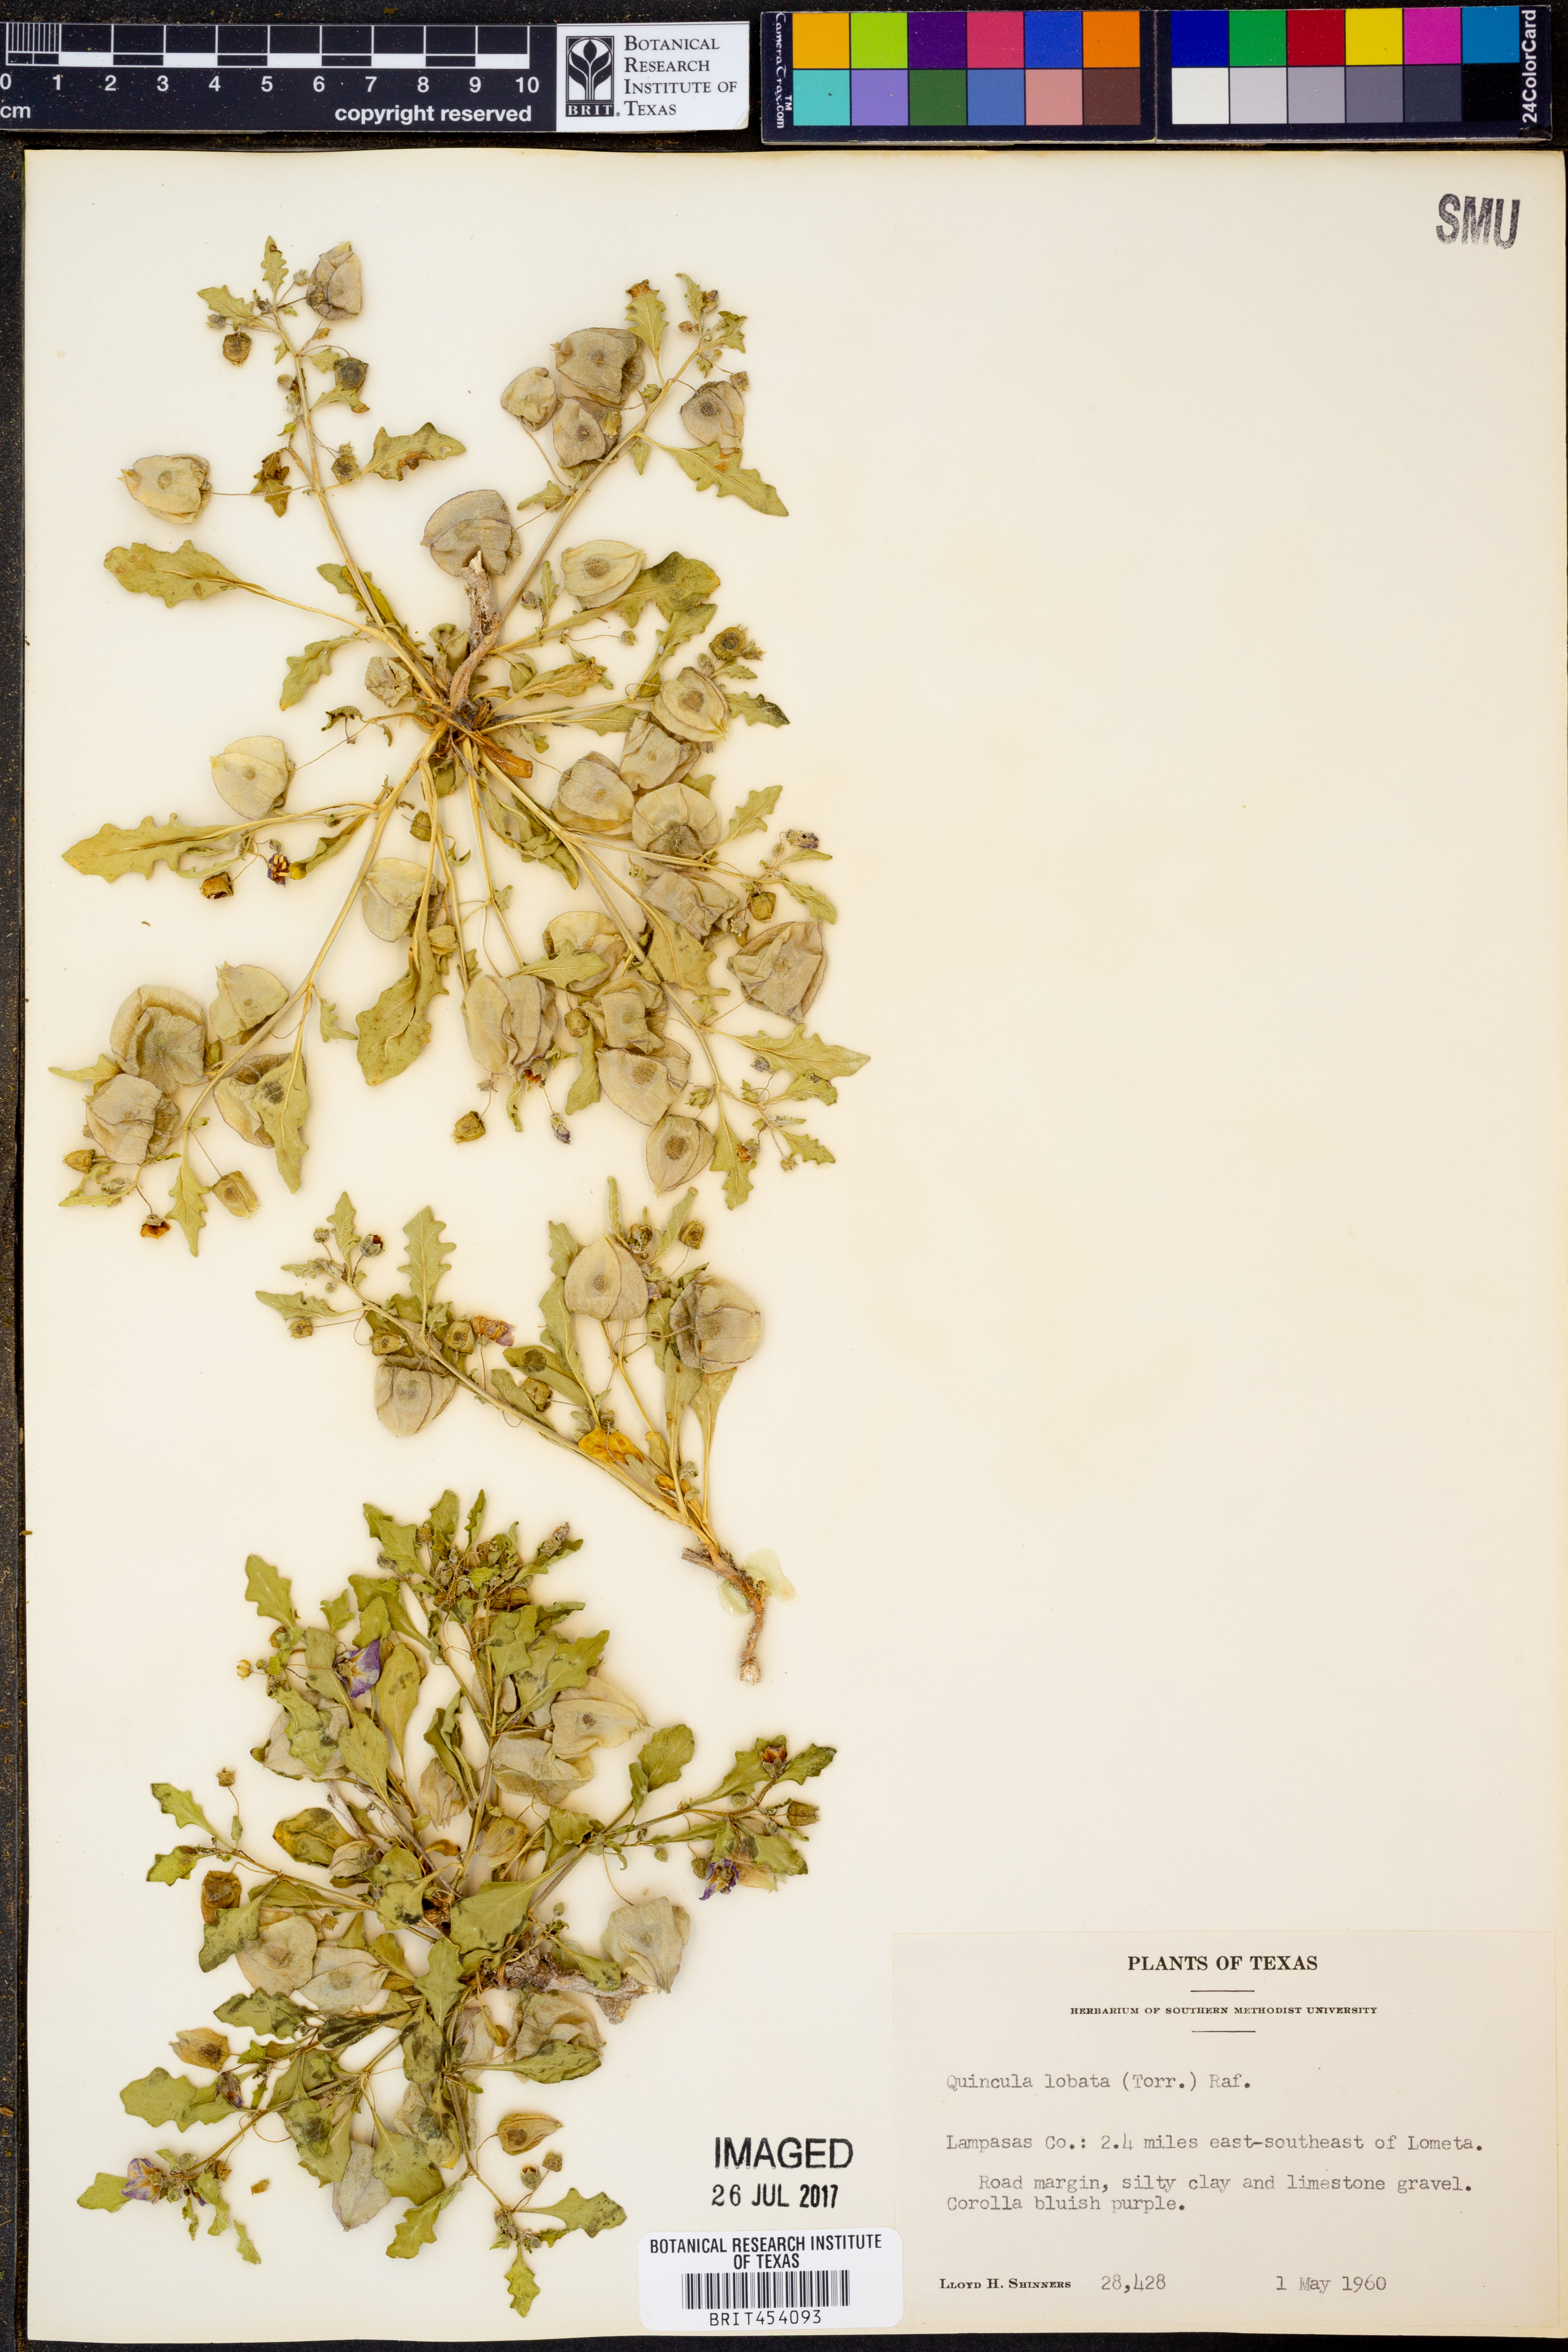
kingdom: Plantae
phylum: Tracheophyta
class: Magnoliopsida
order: Solanales
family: Solanaceae
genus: Quincula
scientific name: Quincula lobata
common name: Purple-ground-cherry
